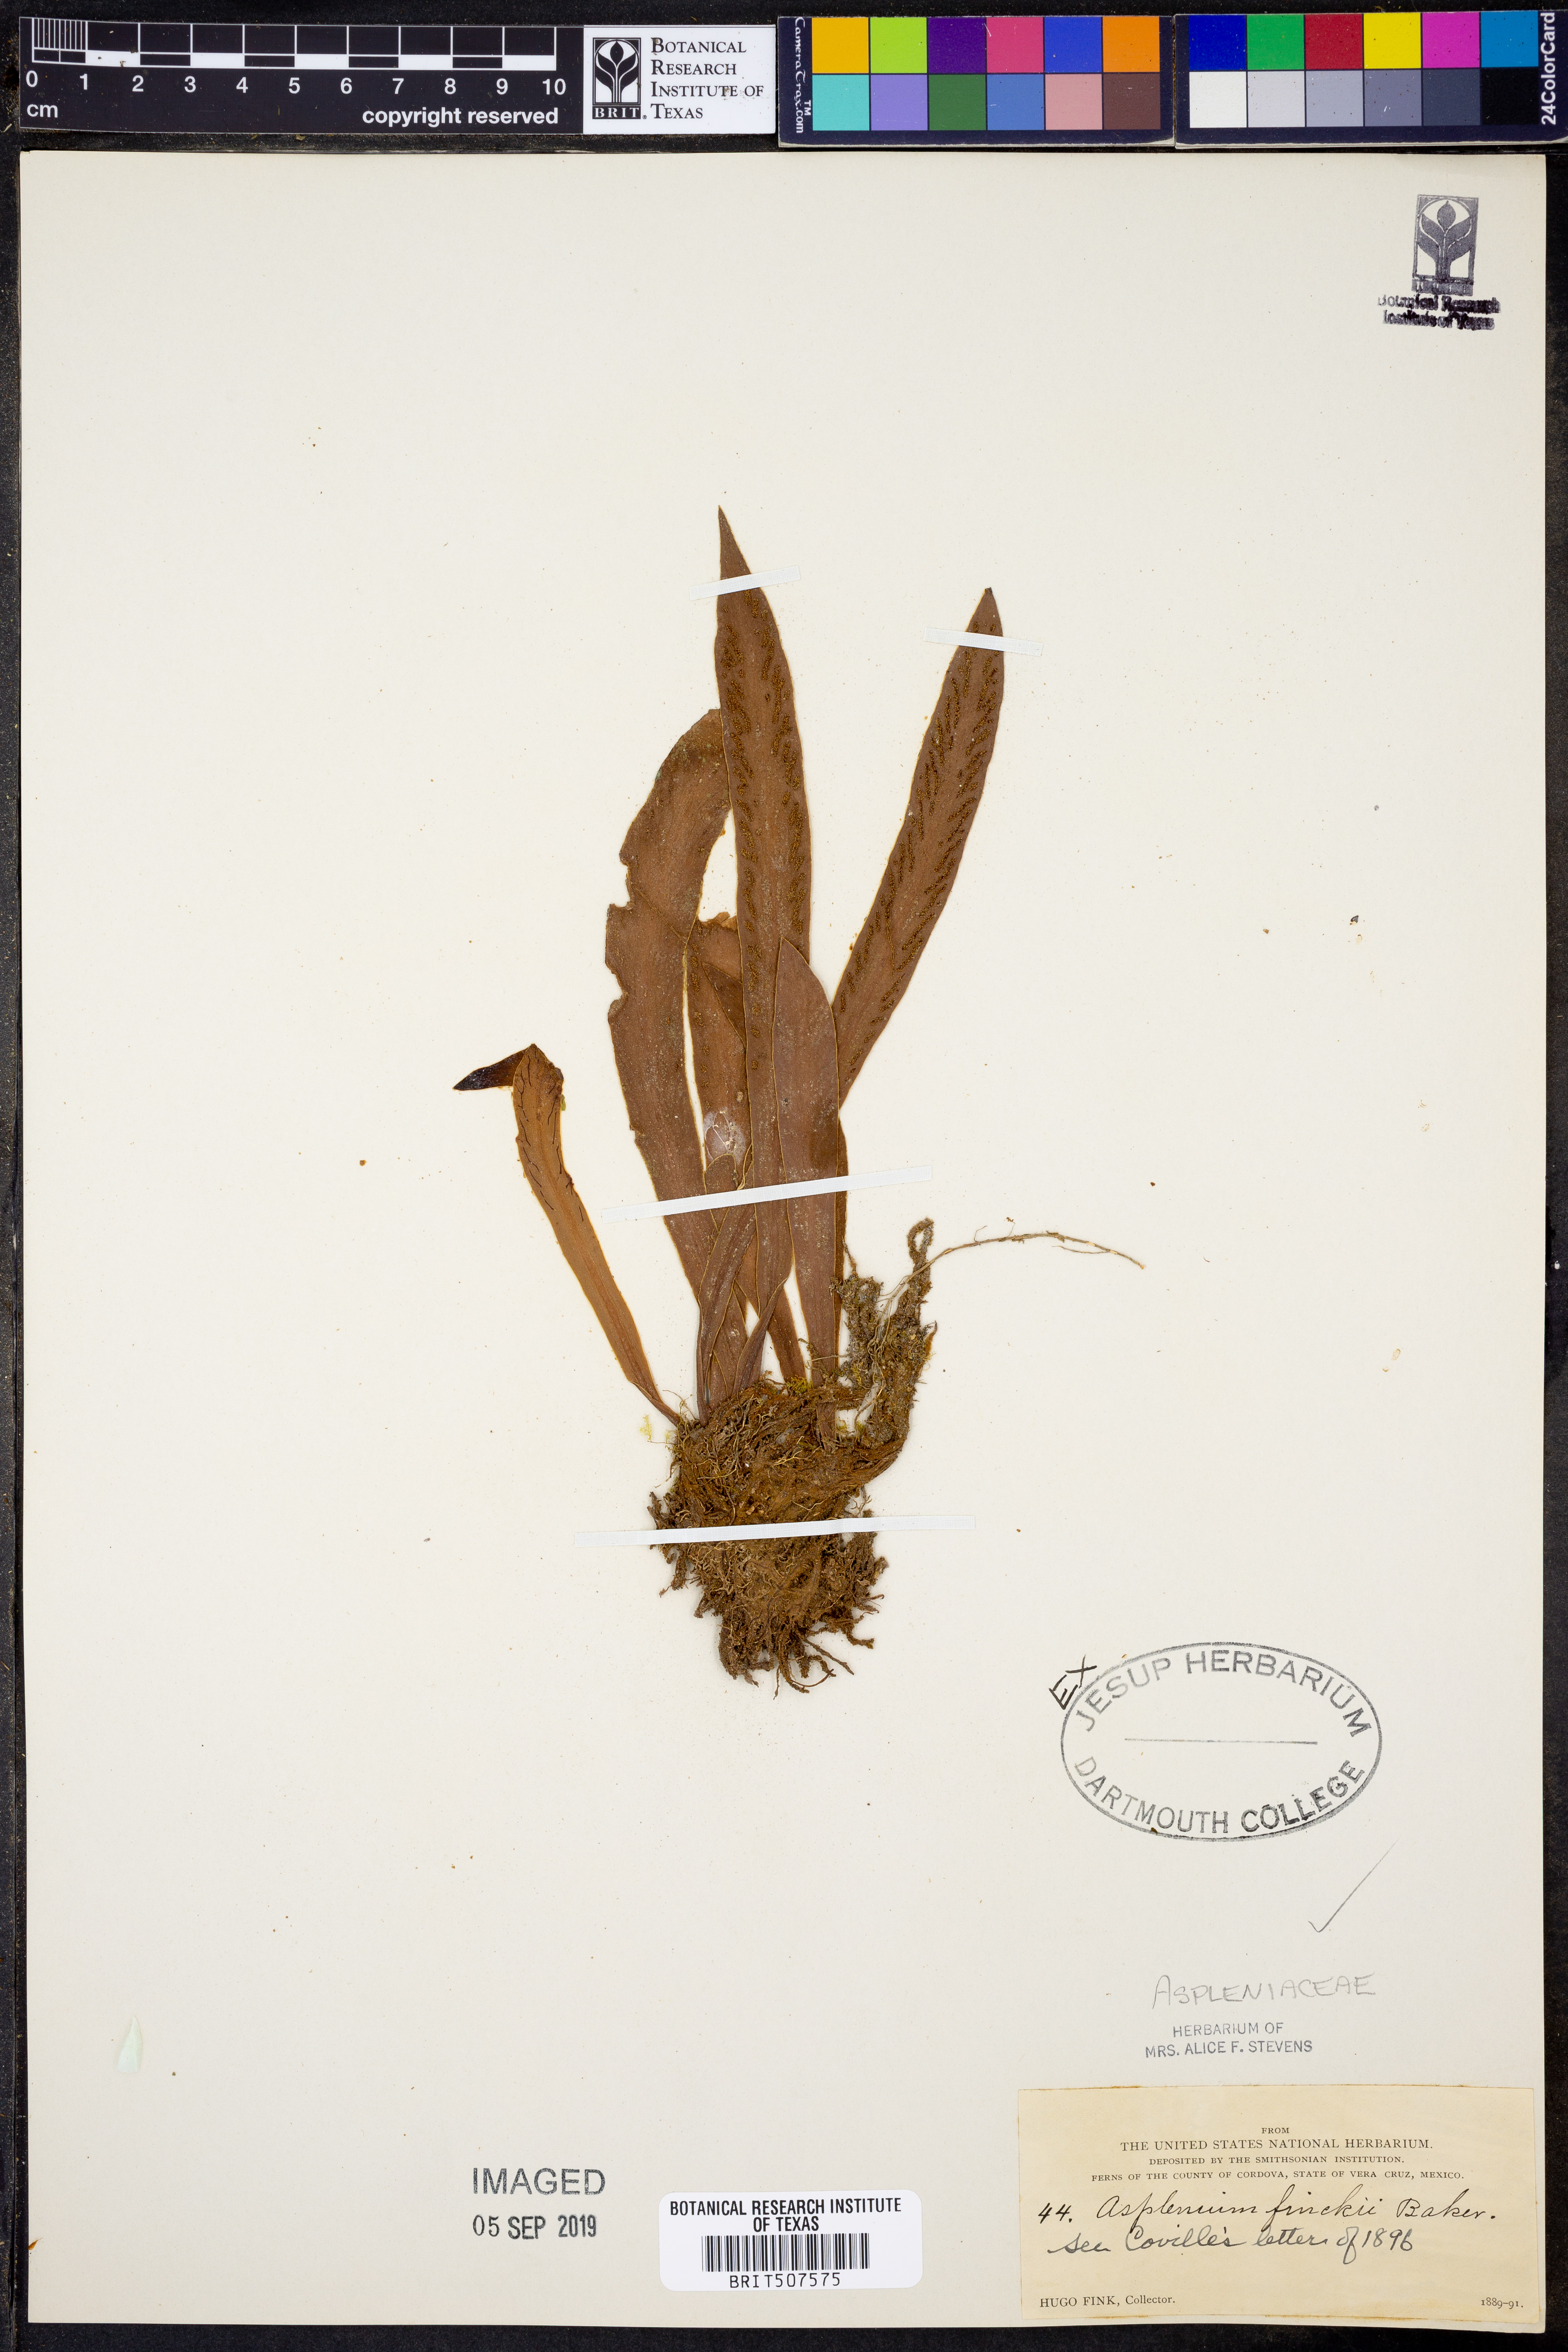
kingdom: Plantae
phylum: Tracheophyta
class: Polypodiopsida
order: Polypodiales
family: Aspleniaceae
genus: Asplenium
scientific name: Asplenium ghiesbreghtii
